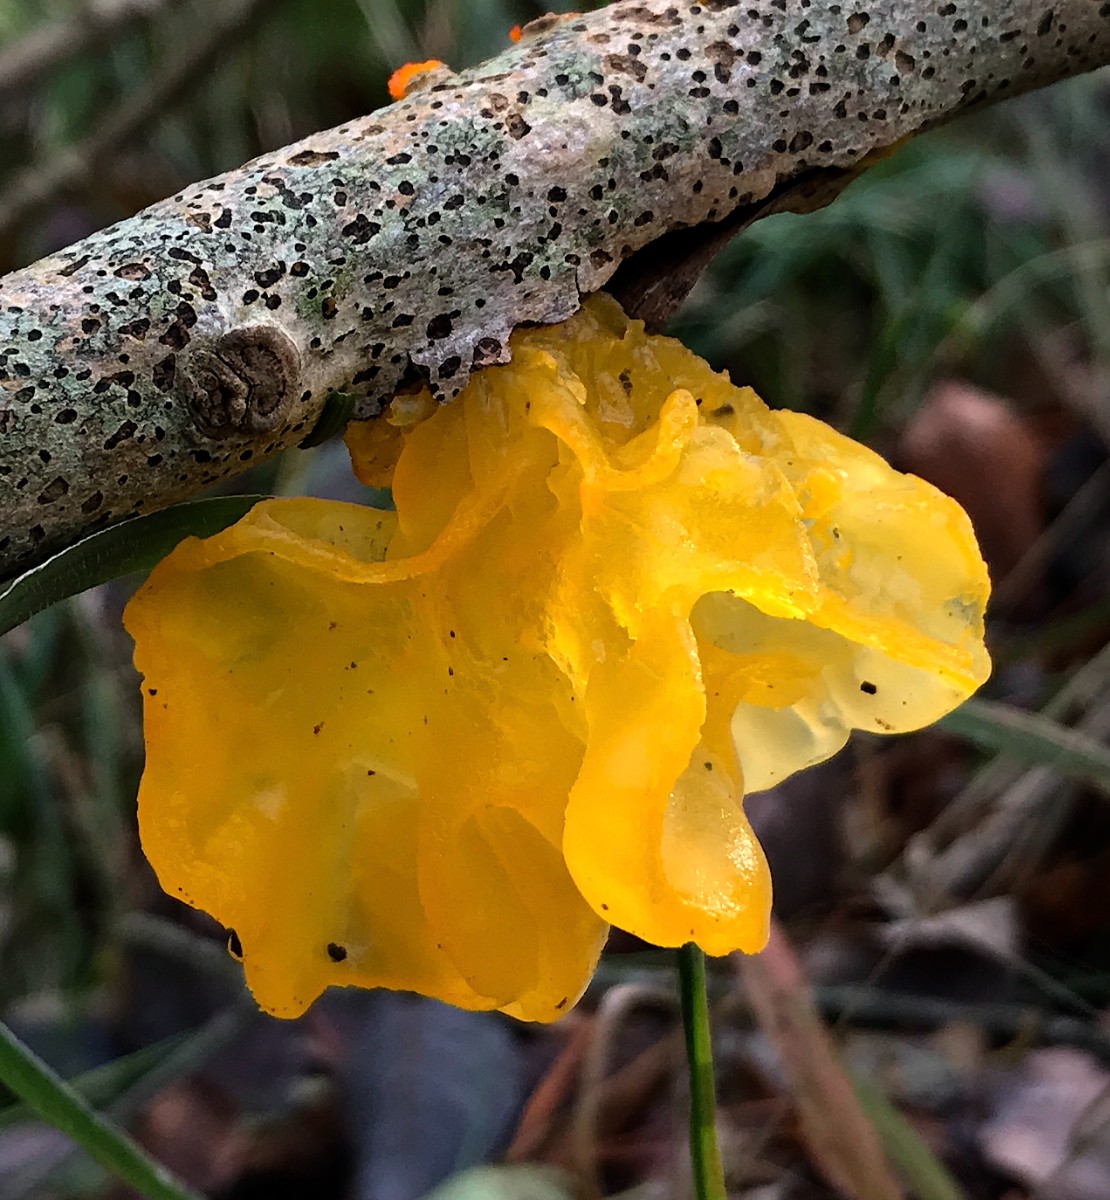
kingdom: Fungi
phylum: Basidiomycota
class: Tremellomycetes
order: Tremellales
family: Tremellaceae
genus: Tremella
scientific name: Tremella mesenterica
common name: gul bævresvamp
